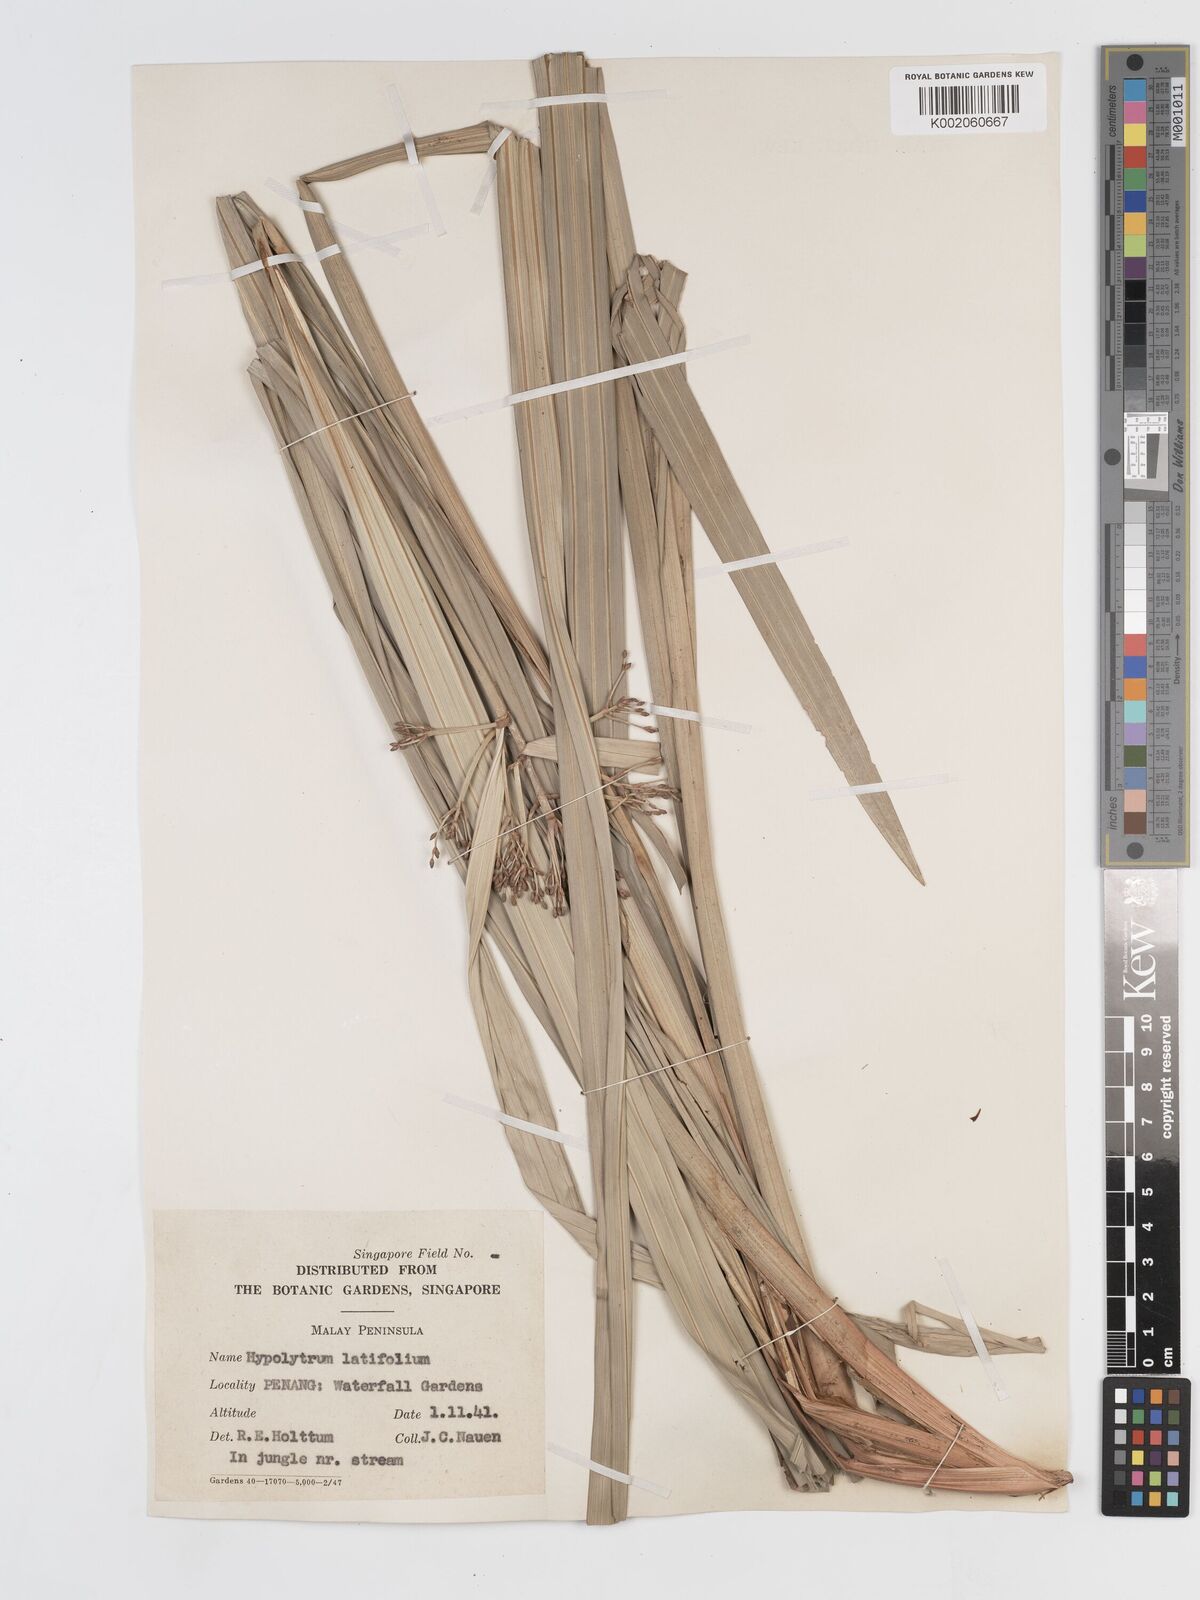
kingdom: Plantae
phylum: Tracheophyta
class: Liliopsida
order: Poales
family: Cyperaceae
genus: Hypolytrum
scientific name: Hypolytrum nemorum
